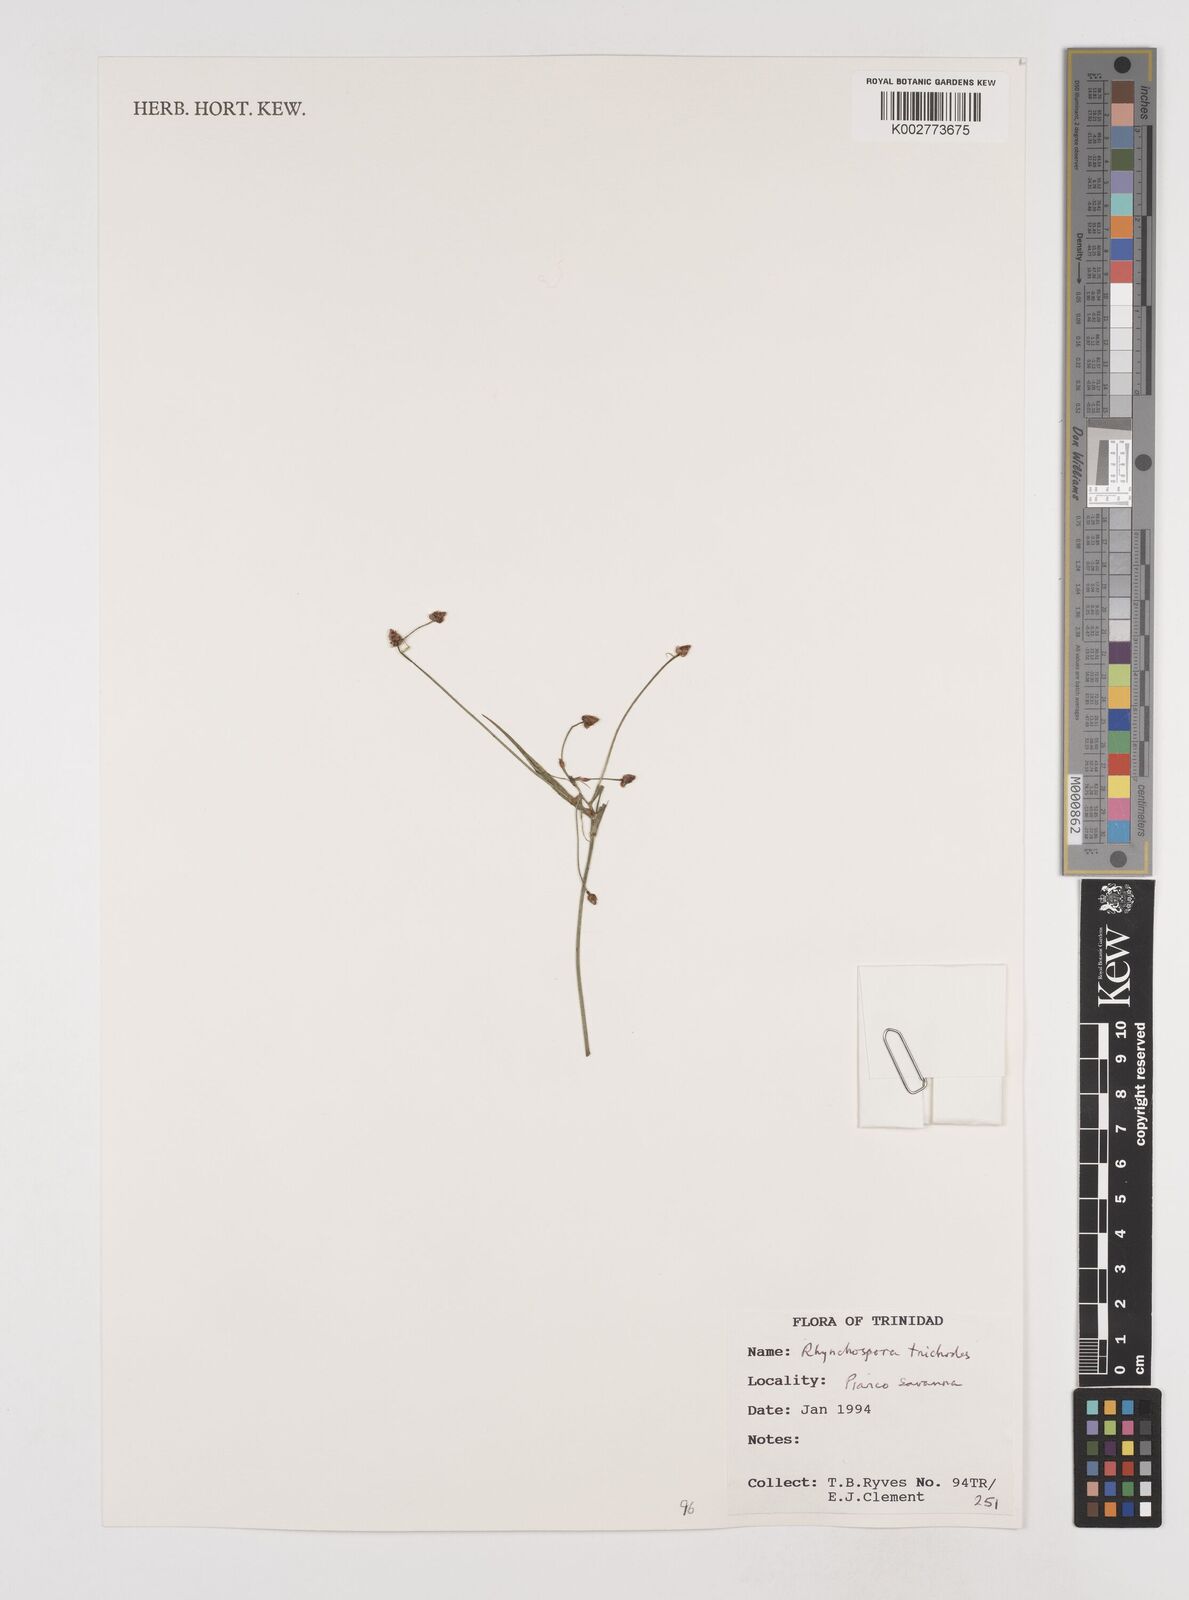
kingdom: Plantae
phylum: Tracheophyta
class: Liliopsida
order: Poales
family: Cyperaceae
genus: Rhynchospora
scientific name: Rhynchospora divaricata
